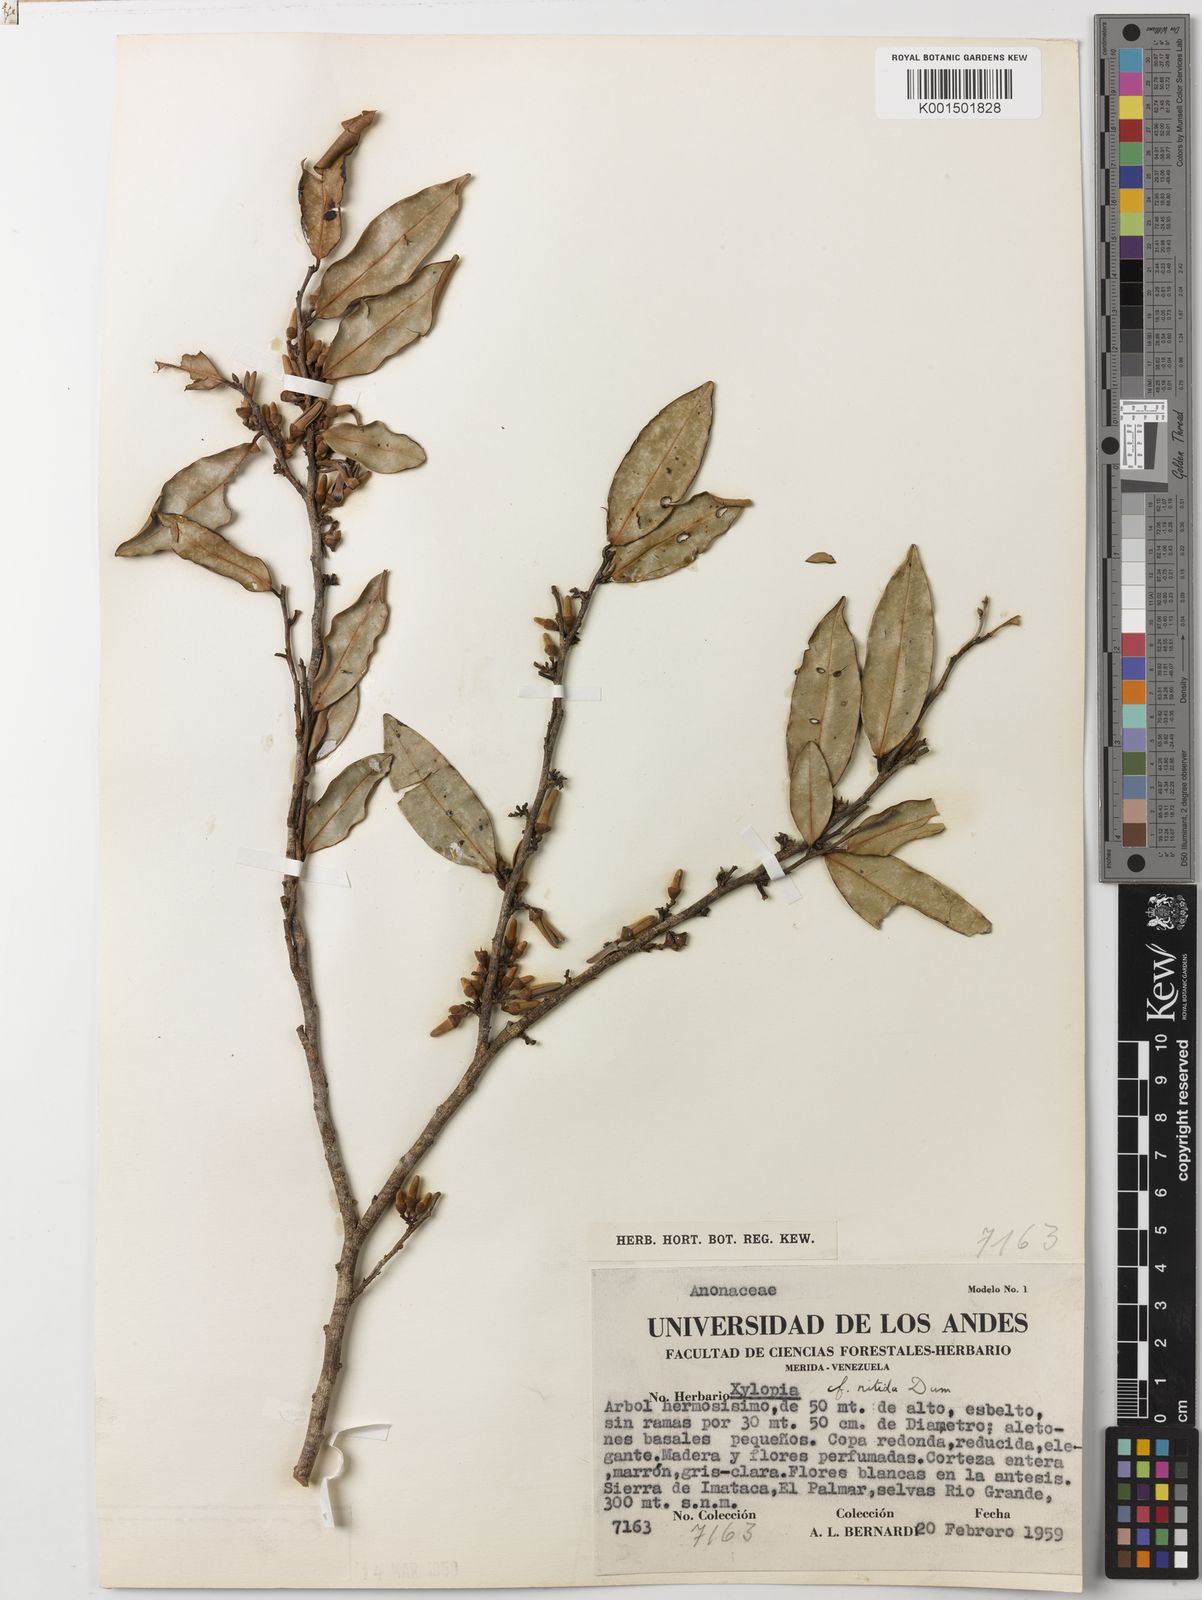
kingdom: Plantae
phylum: Tracheophyta
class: Magnoliopsida
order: Magnoliales
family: Annonaceae
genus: Xylopia
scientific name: Xylopia nitida
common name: White kuyama
